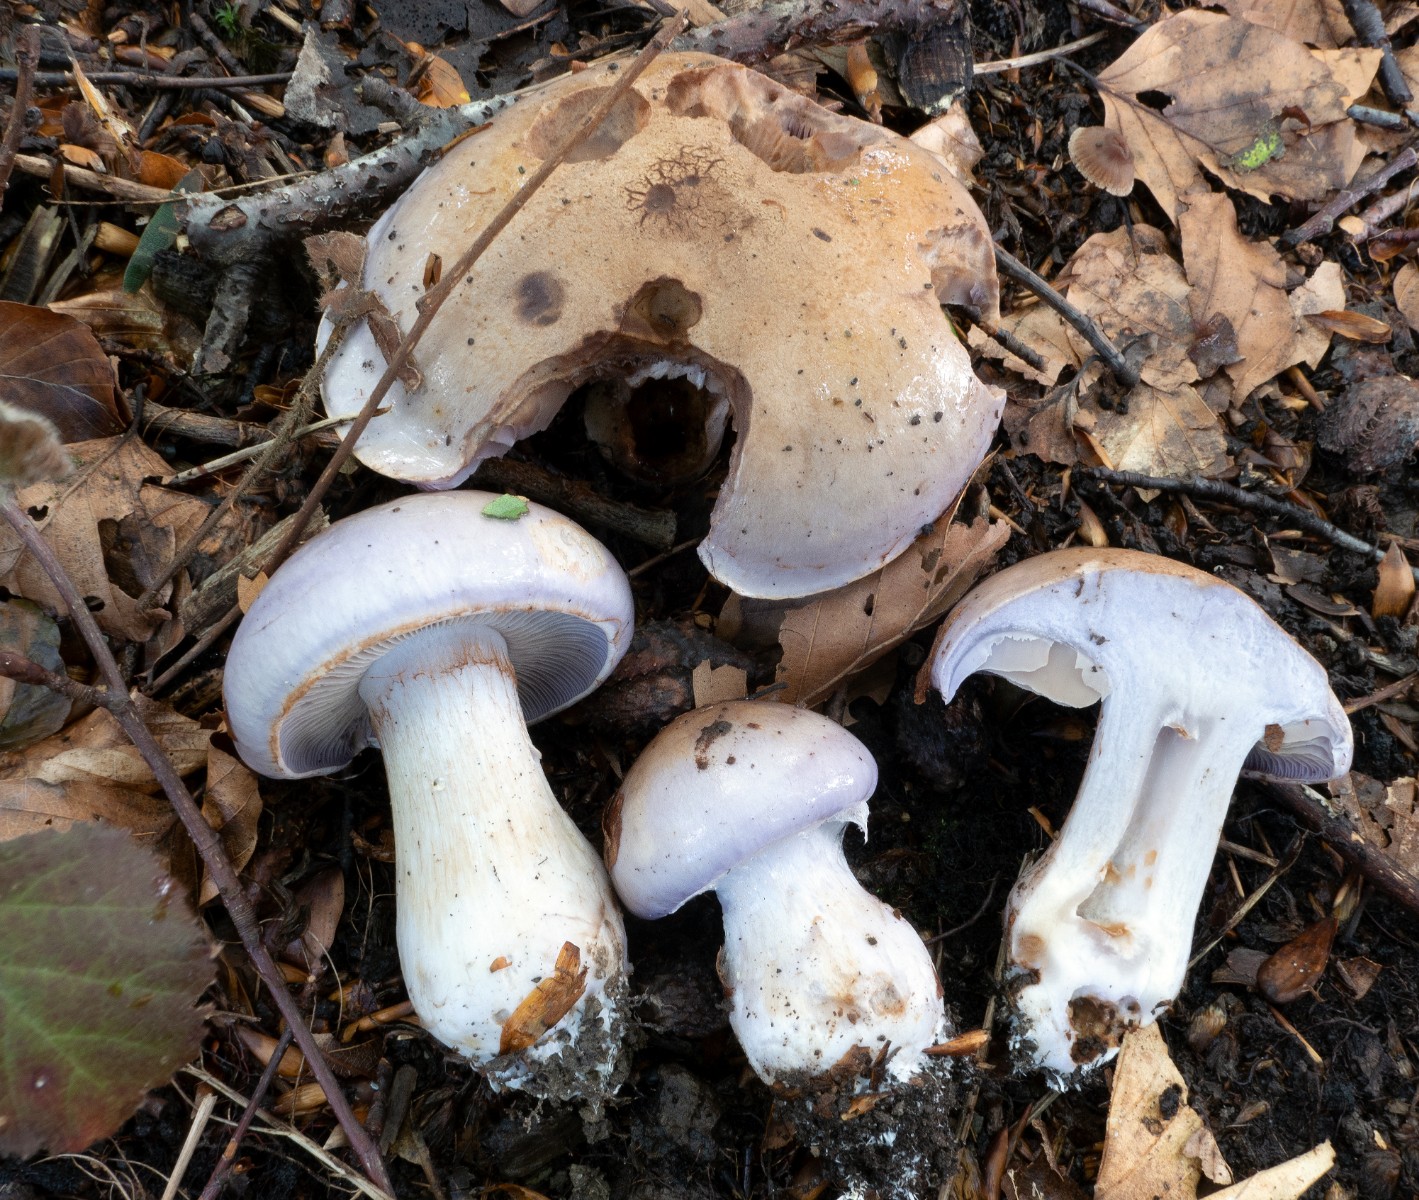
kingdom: Fungi
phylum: Basidiomycota
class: Agaricomycetes
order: Agaricales
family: Cortinariaceae
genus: Cortinarius
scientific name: Cortinarius largus
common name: violetrandet slørhat
